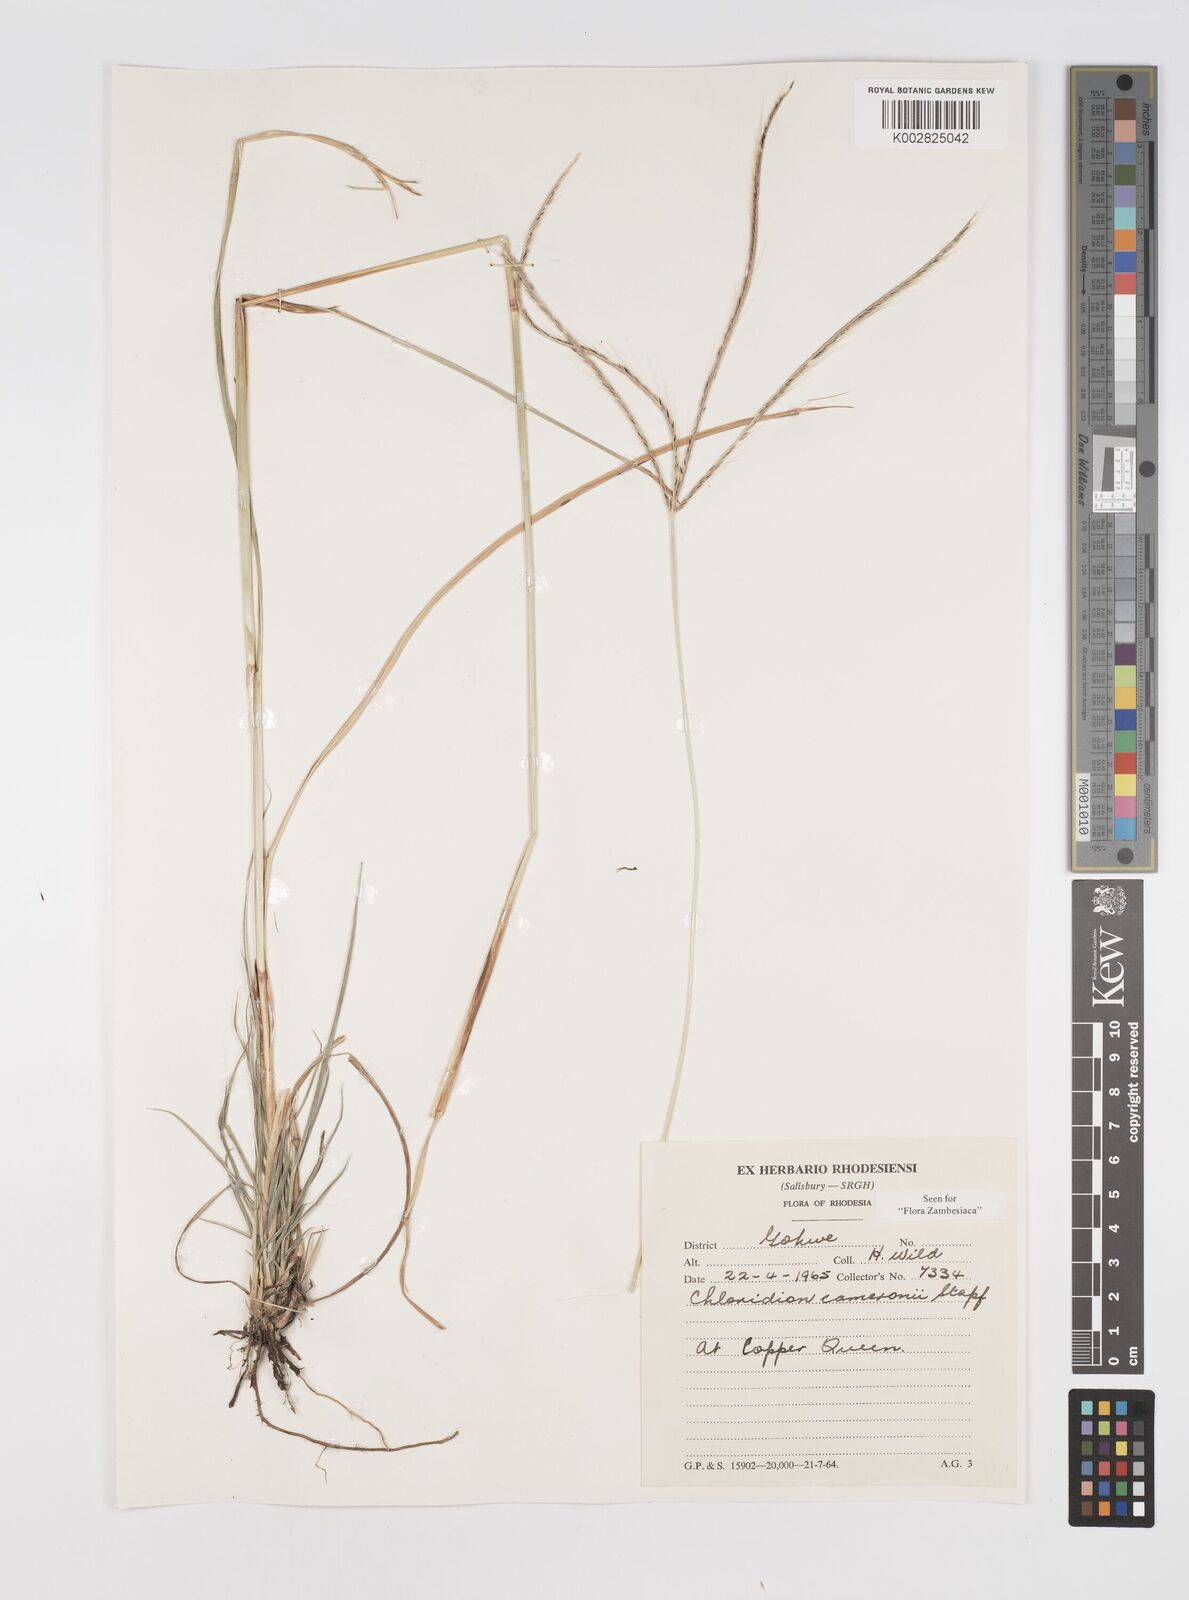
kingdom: Plantae
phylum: Tracheophyta
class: Liliopsida
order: Poales
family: Poaceae
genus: Stereochlaena
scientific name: Stereochlaena cameronii
